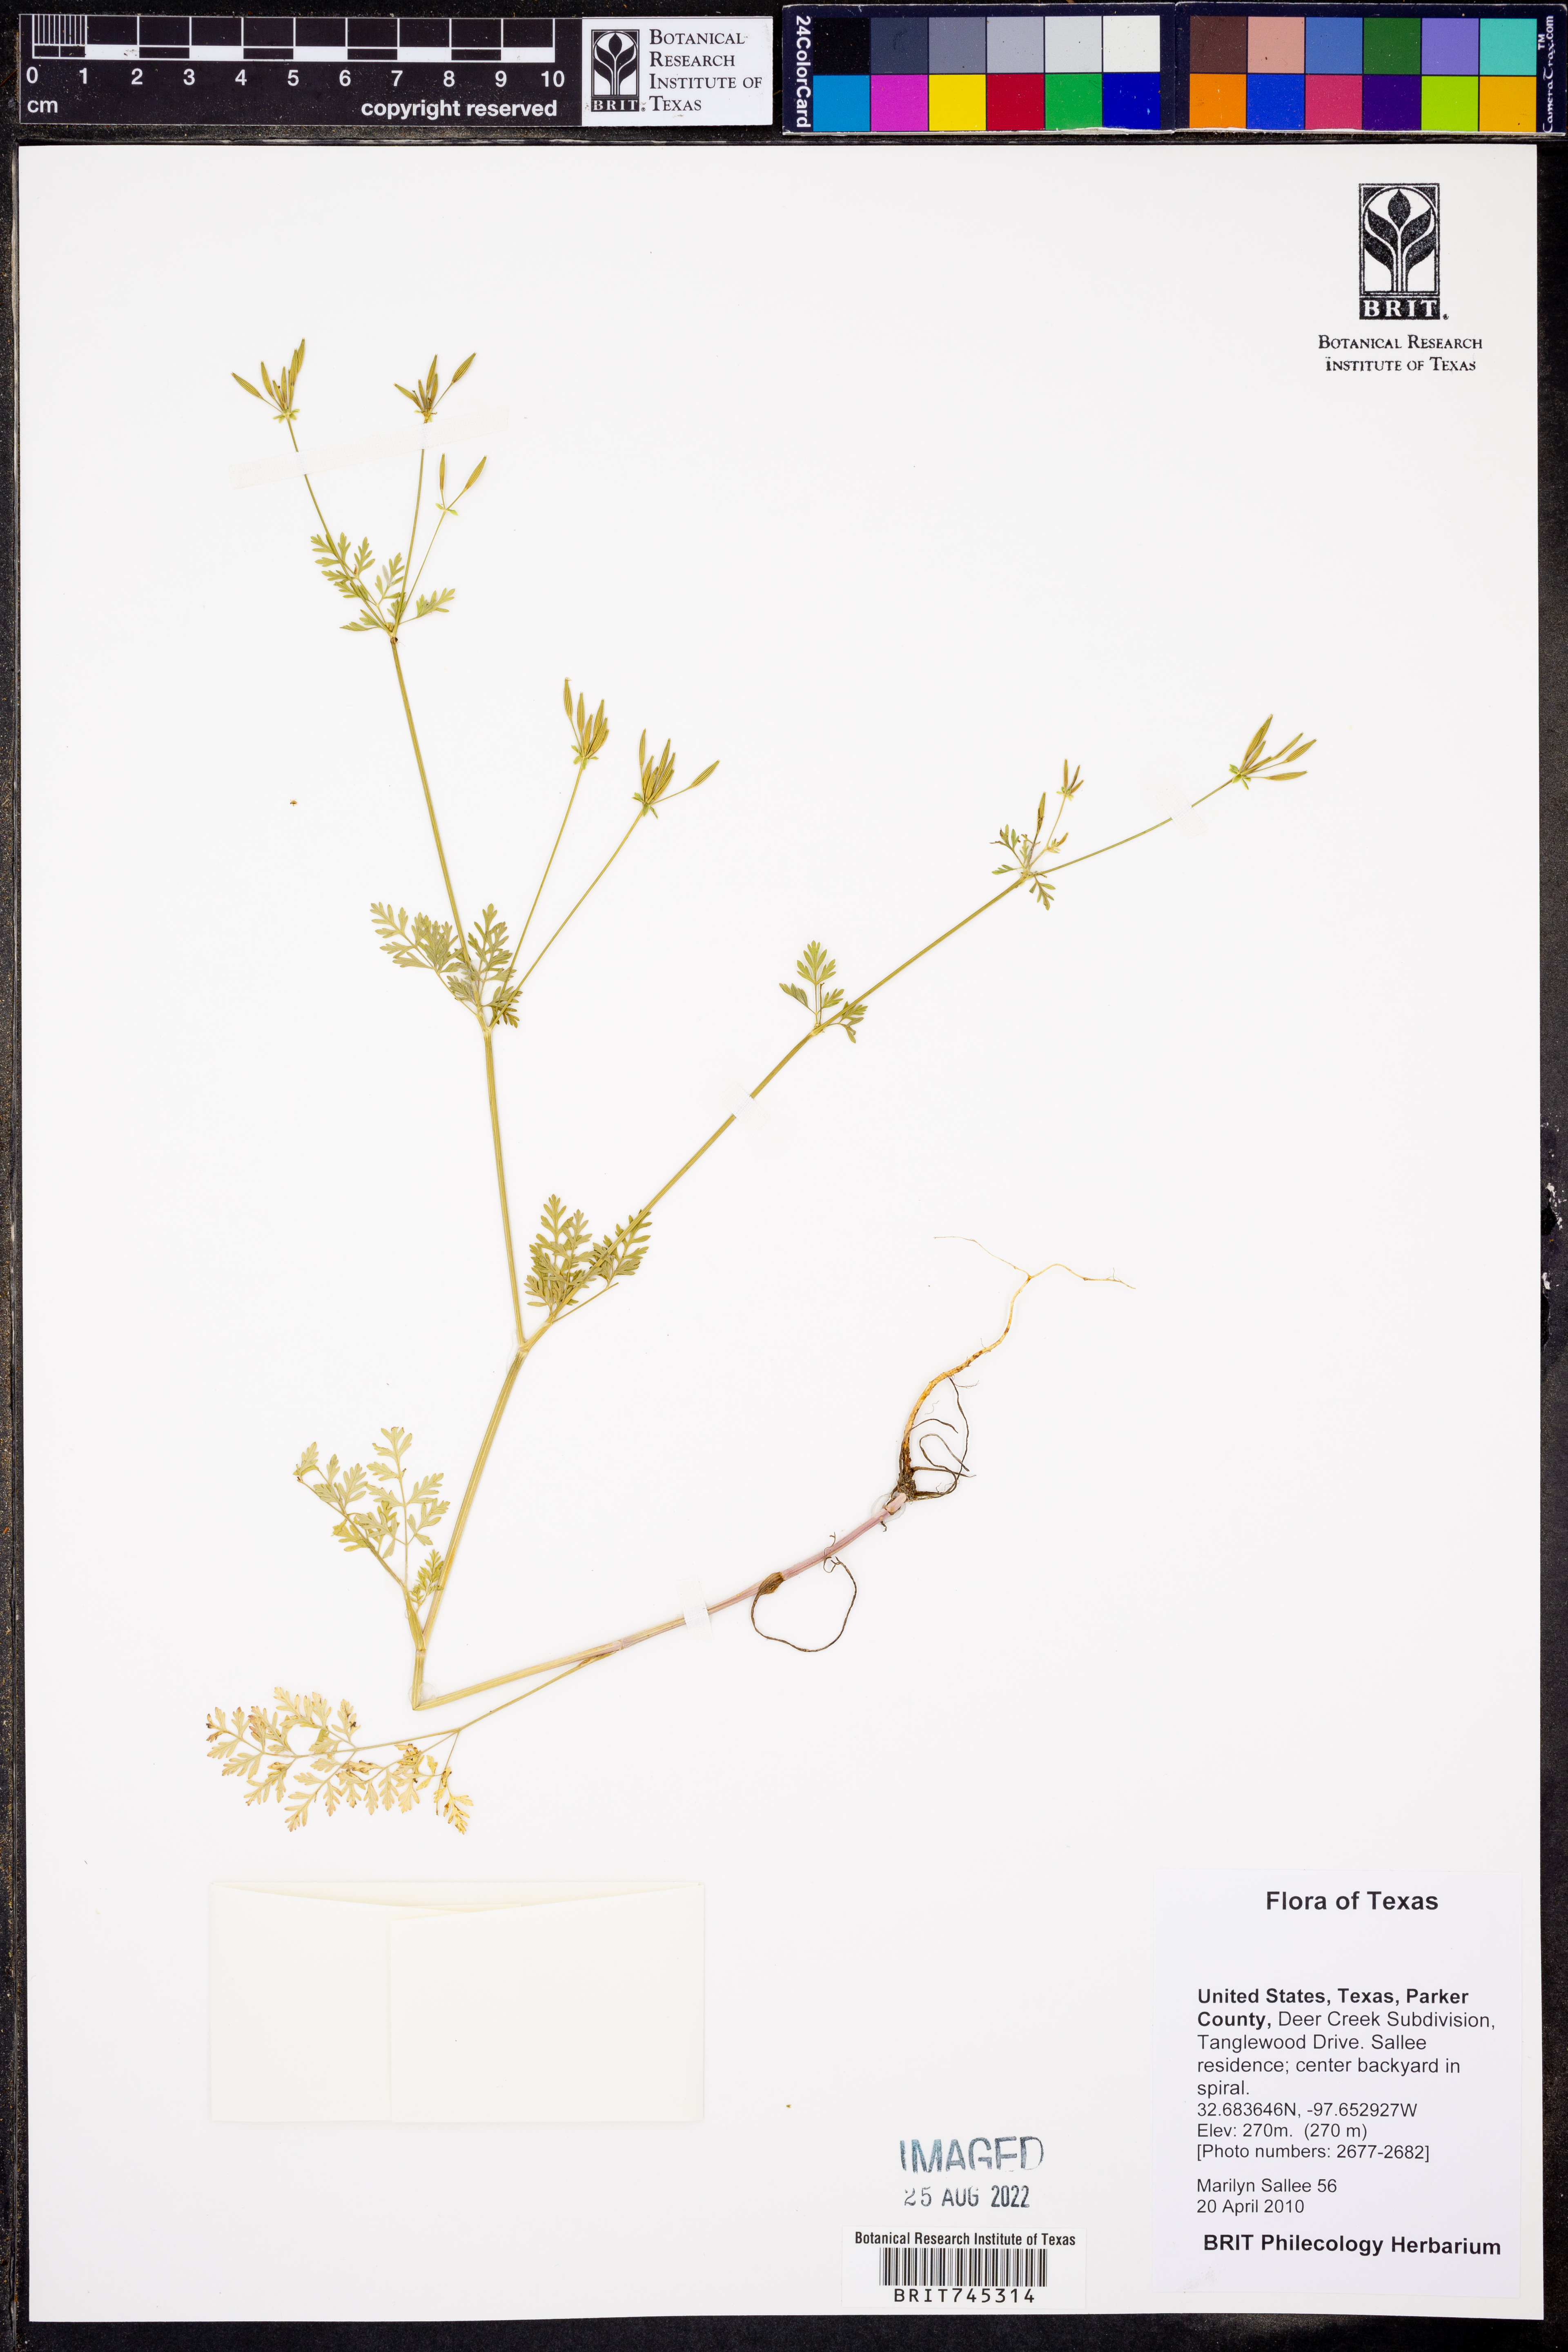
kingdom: Plantae
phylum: Tracheophyta
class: Magnoliopsida
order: Apiales
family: Apiaceae
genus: Chaerophyllum
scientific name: Chaerophyllum tainturieri
